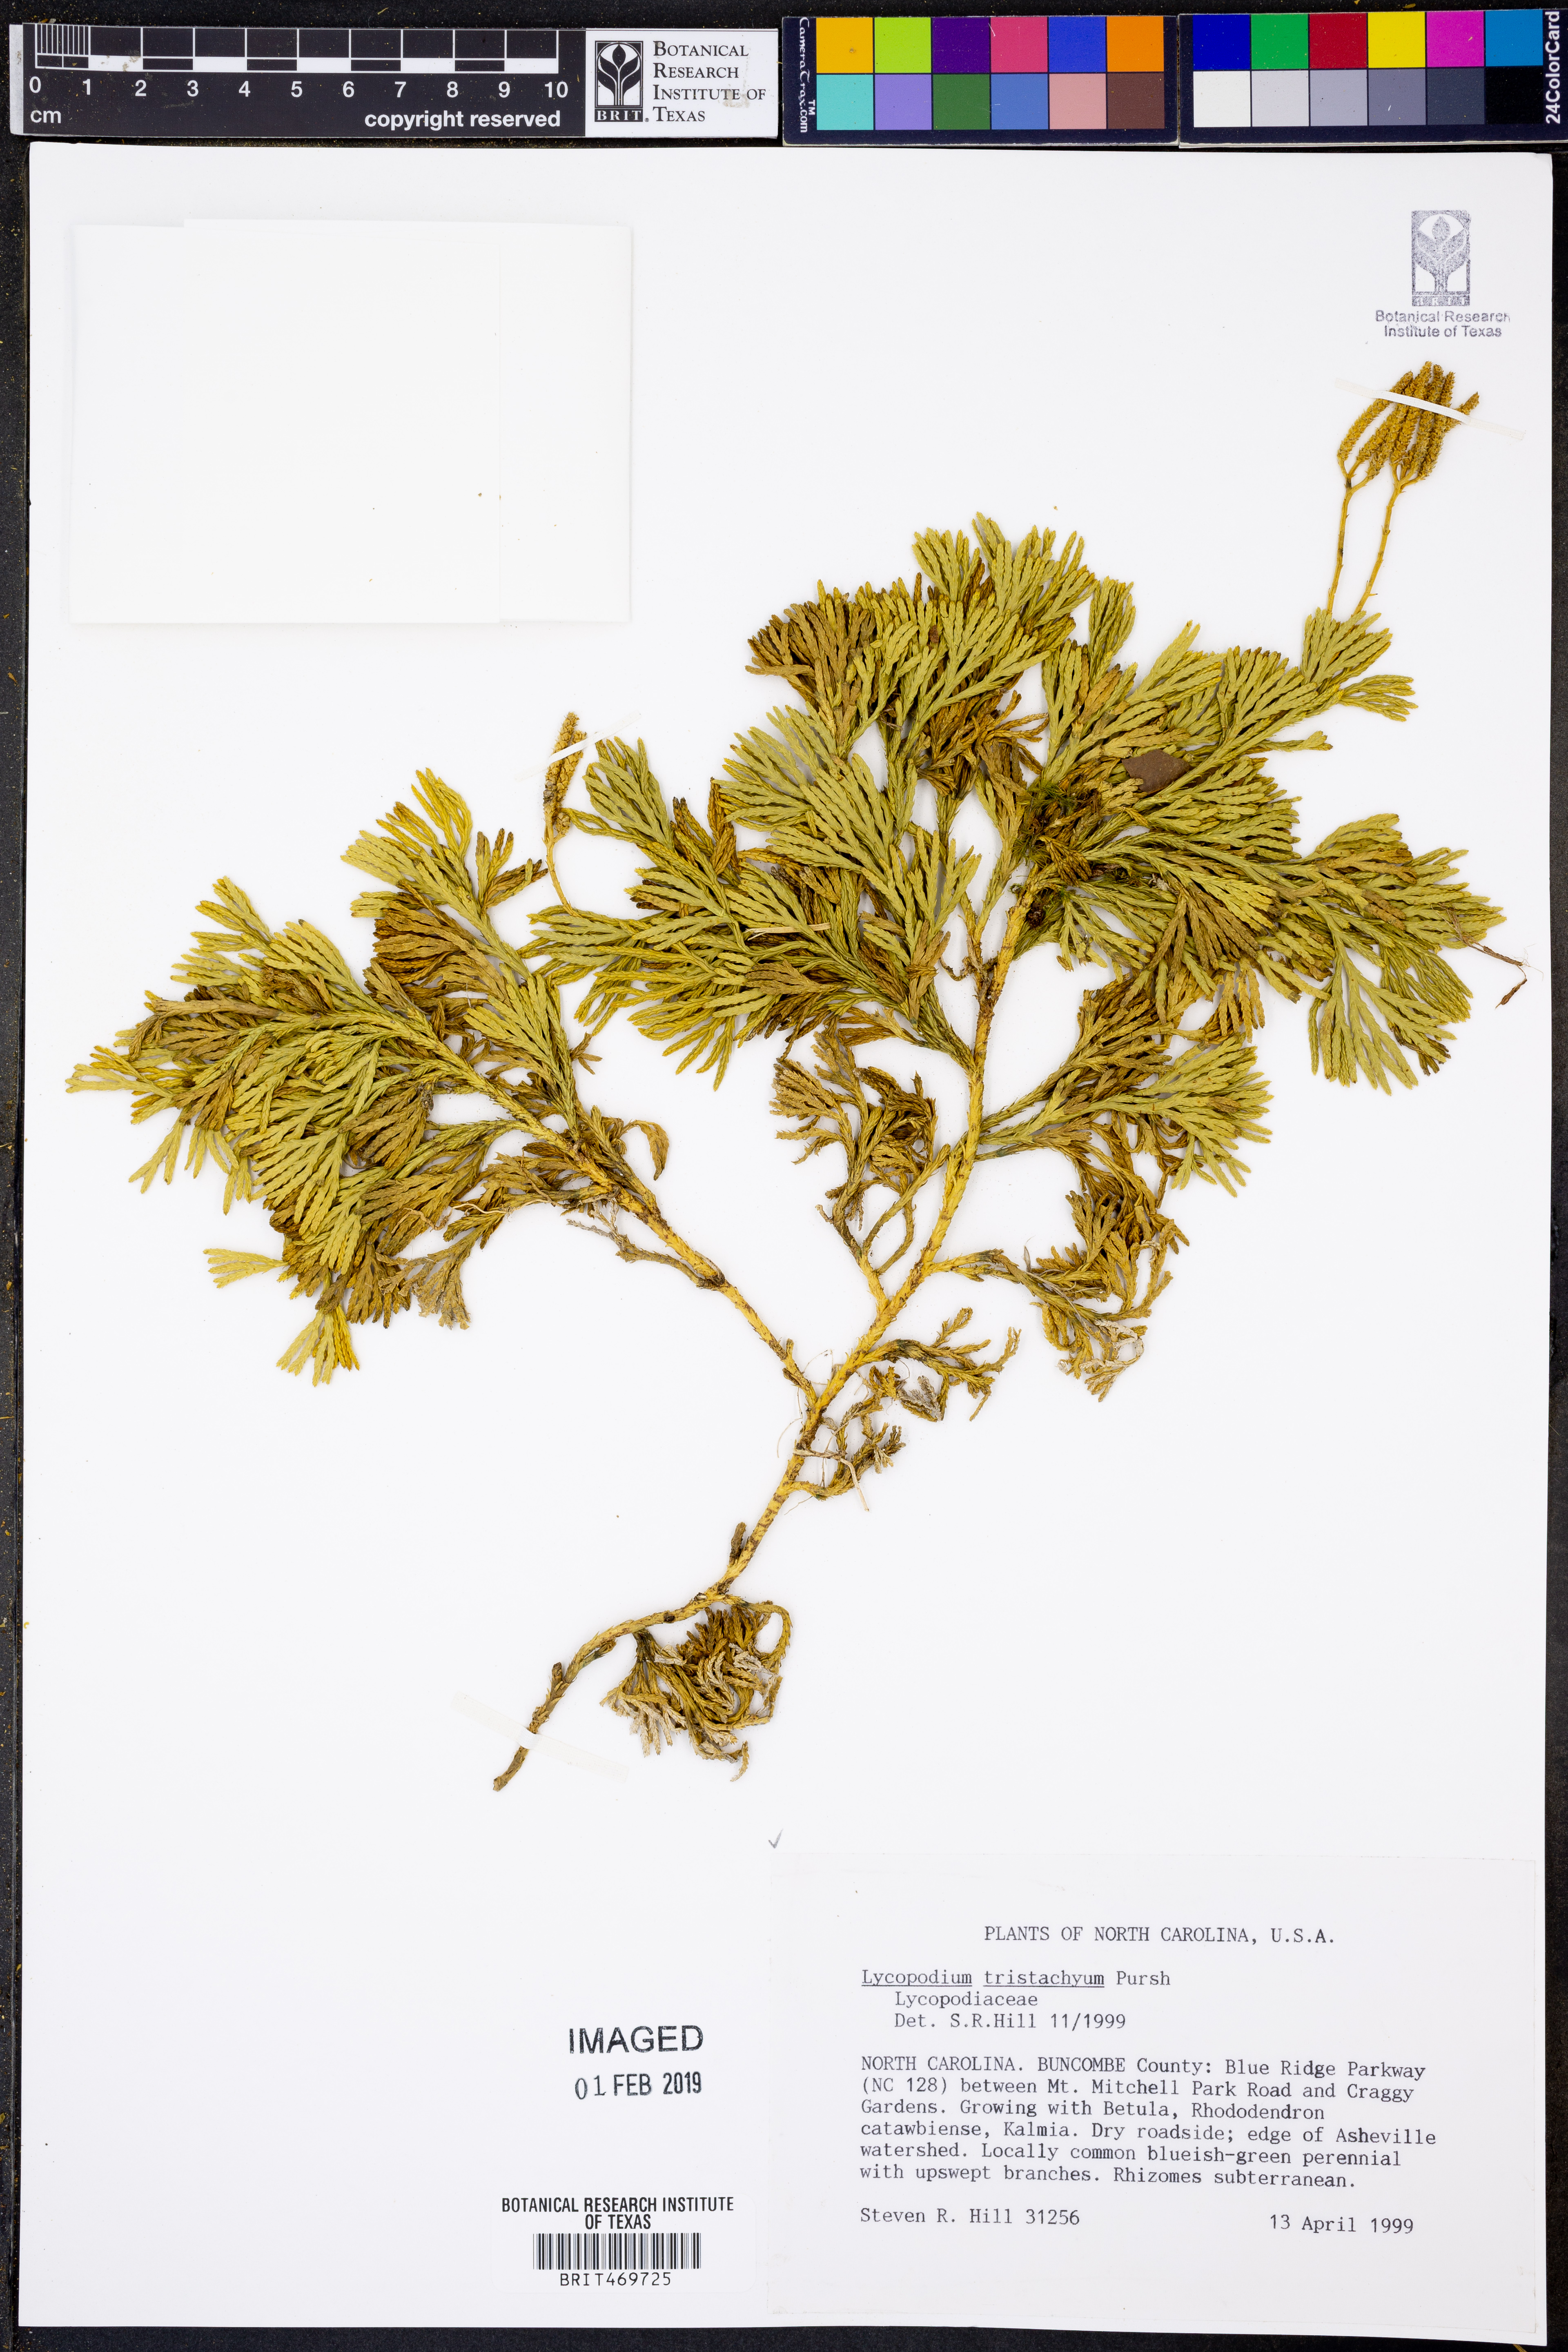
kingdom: Plantae
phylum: Tracheophyta
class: Lycopodiopsida
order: Lycopodiales
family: Lycopodiaceae
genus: Diphasiastrum
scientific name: Diphasiastrum tristachyum
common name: Blue ground-cedar
